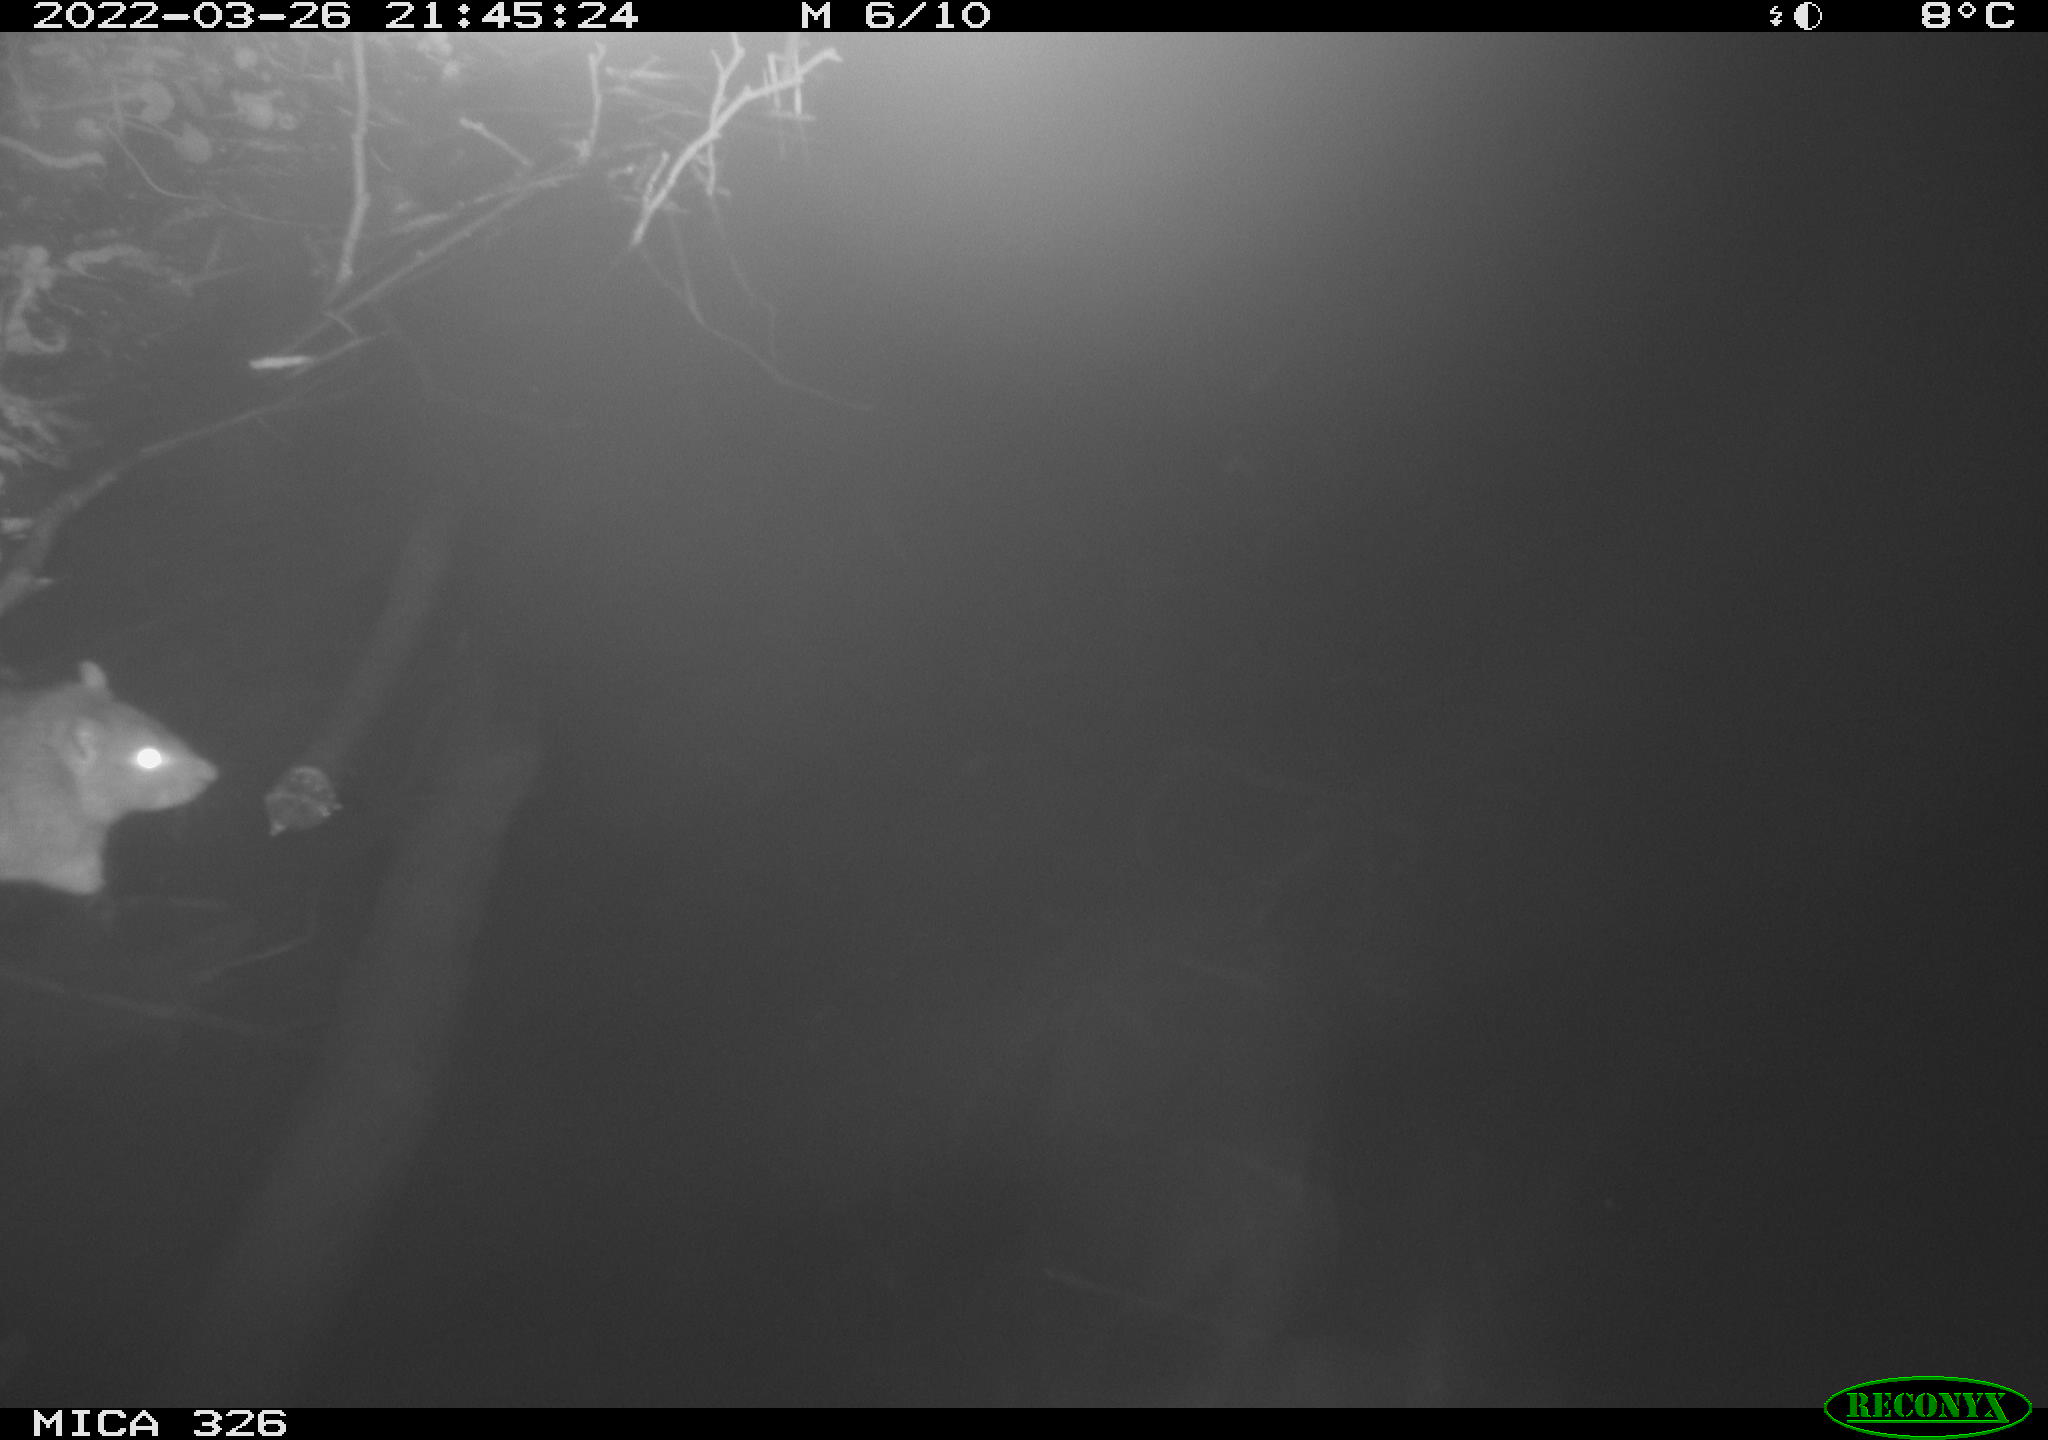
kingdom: Animalia
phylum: Chordata
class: Mammalia
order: Rodentia
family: Muridae
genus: Rattus
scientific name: Rattus norvegicus
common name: Brown rat
